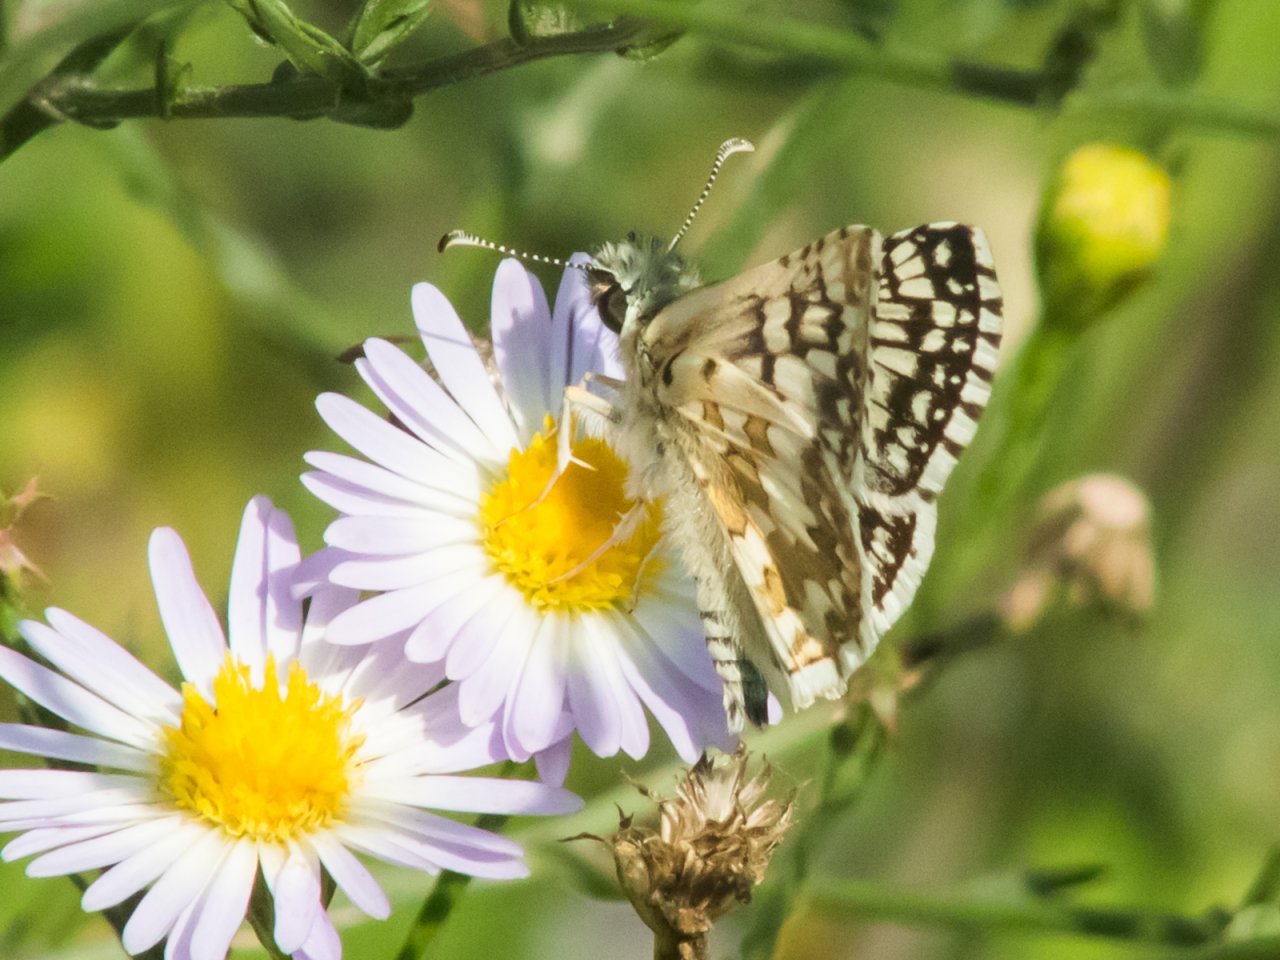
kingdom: Animalia
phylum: Arthropoda
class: Insecta
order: Lepidoptera
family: Hesperiidae
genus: Pyrgus
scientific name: Pyrgus
